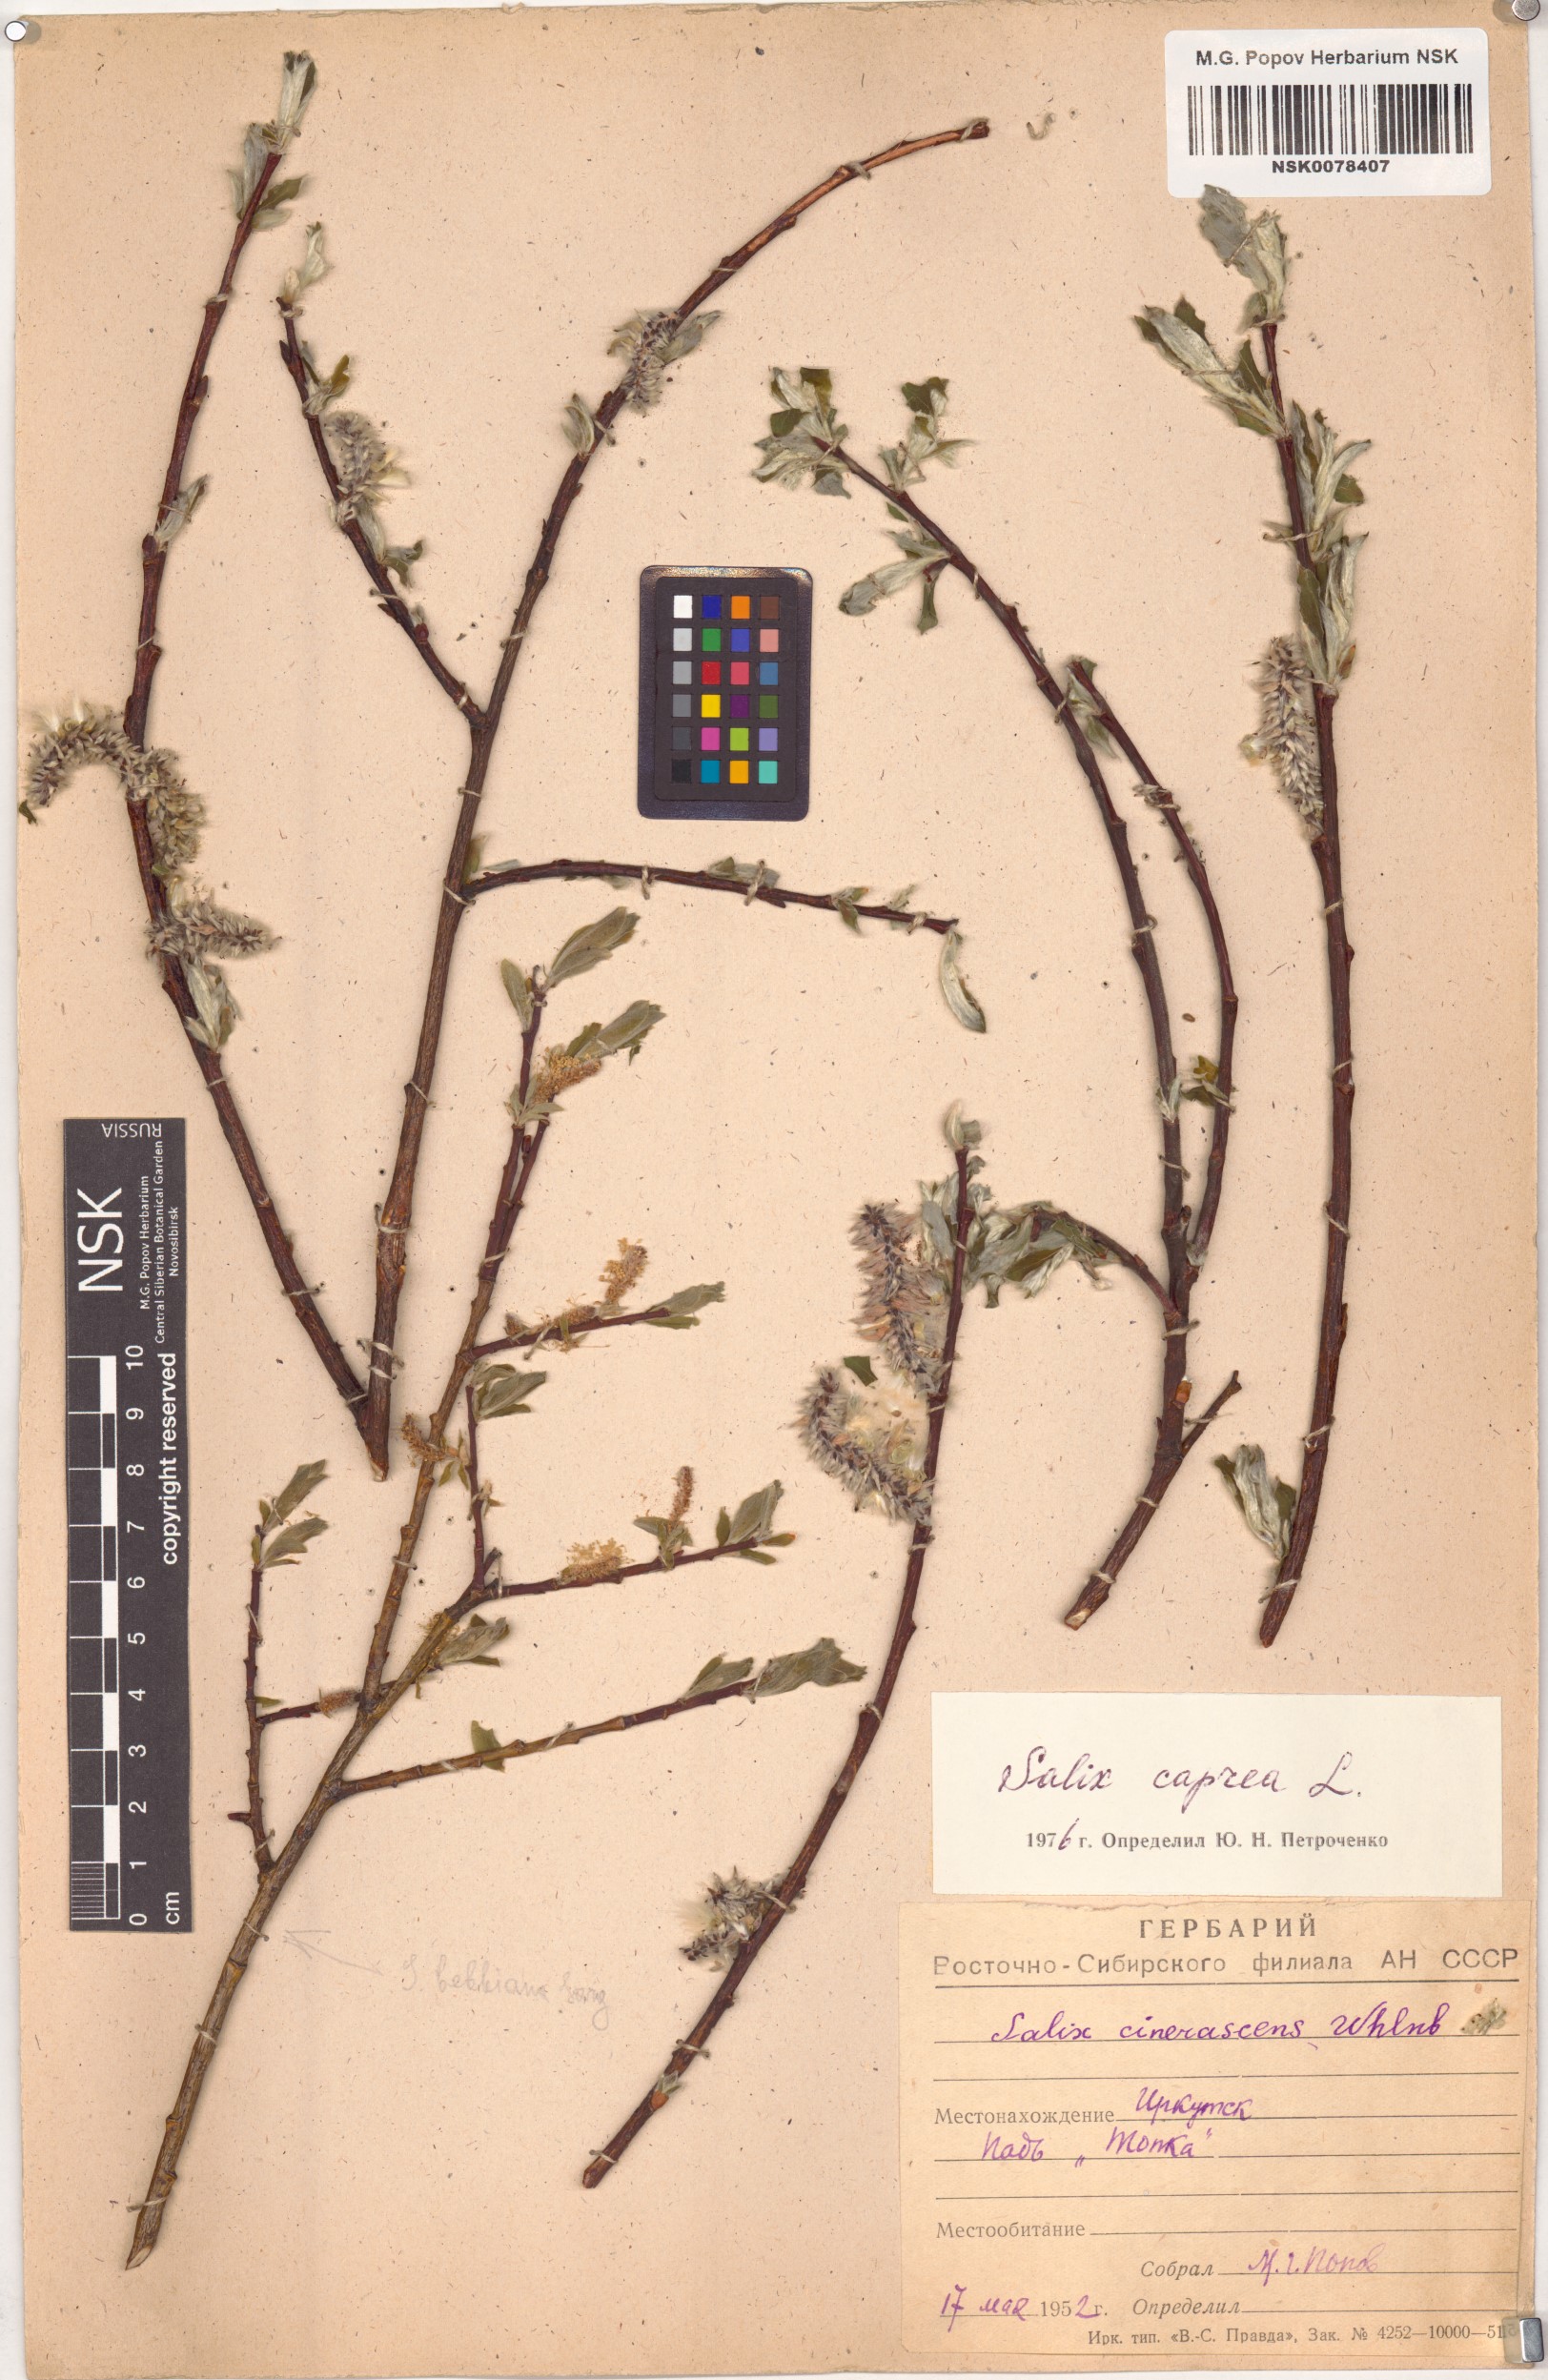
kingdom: Plantae
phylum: Tracheophyta
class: Magnoliopsida
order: Malpighiales
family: Salicaceae
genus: Salix
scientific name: Salix caprea
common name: Goat willow
